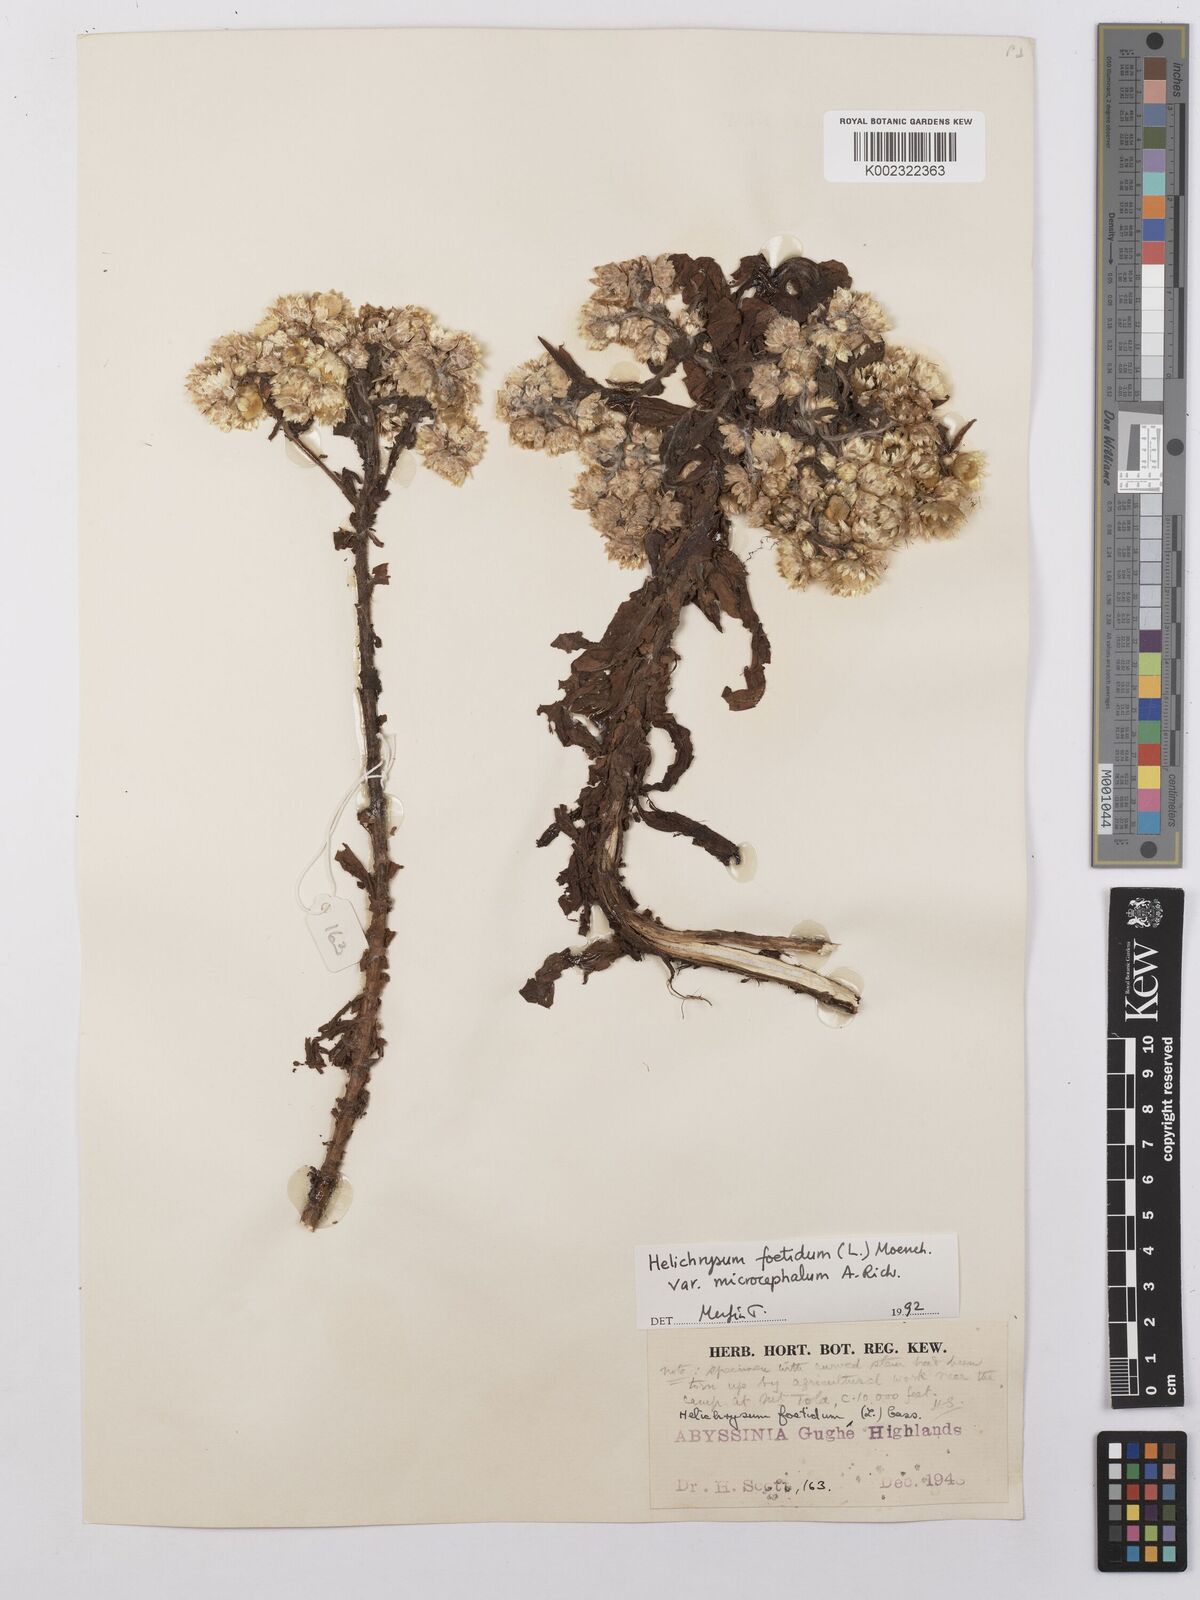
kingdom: Plantae
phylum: Tracheophyta
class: Magnoliopsida
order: Asterales
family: Asteraceae
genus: Helichrysum
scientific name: Helichrysum foetidum
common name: Stinking everlasting
